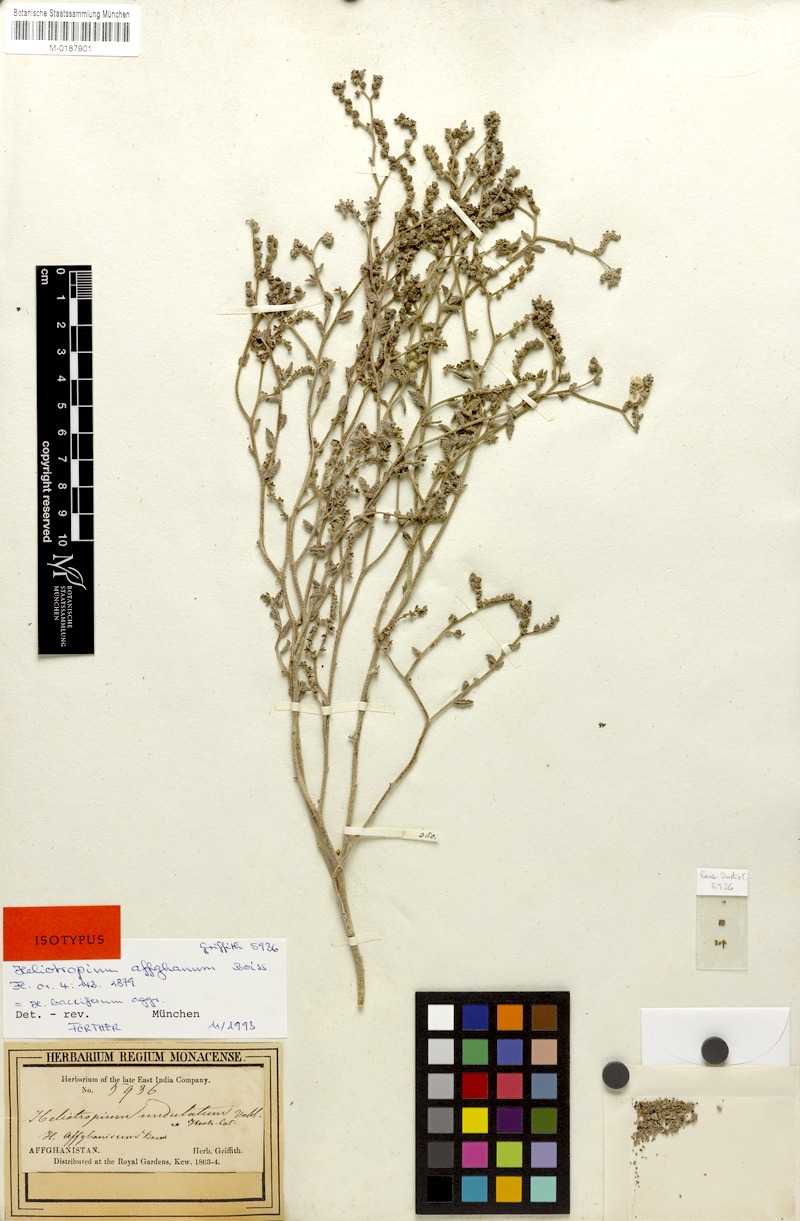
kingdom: Plantae
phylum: Tracheophyta
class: Magnoliopsida
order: Boraginales
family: Heliotropiaceae
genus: Heliotropium
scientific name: Heliotropium bacciferum
